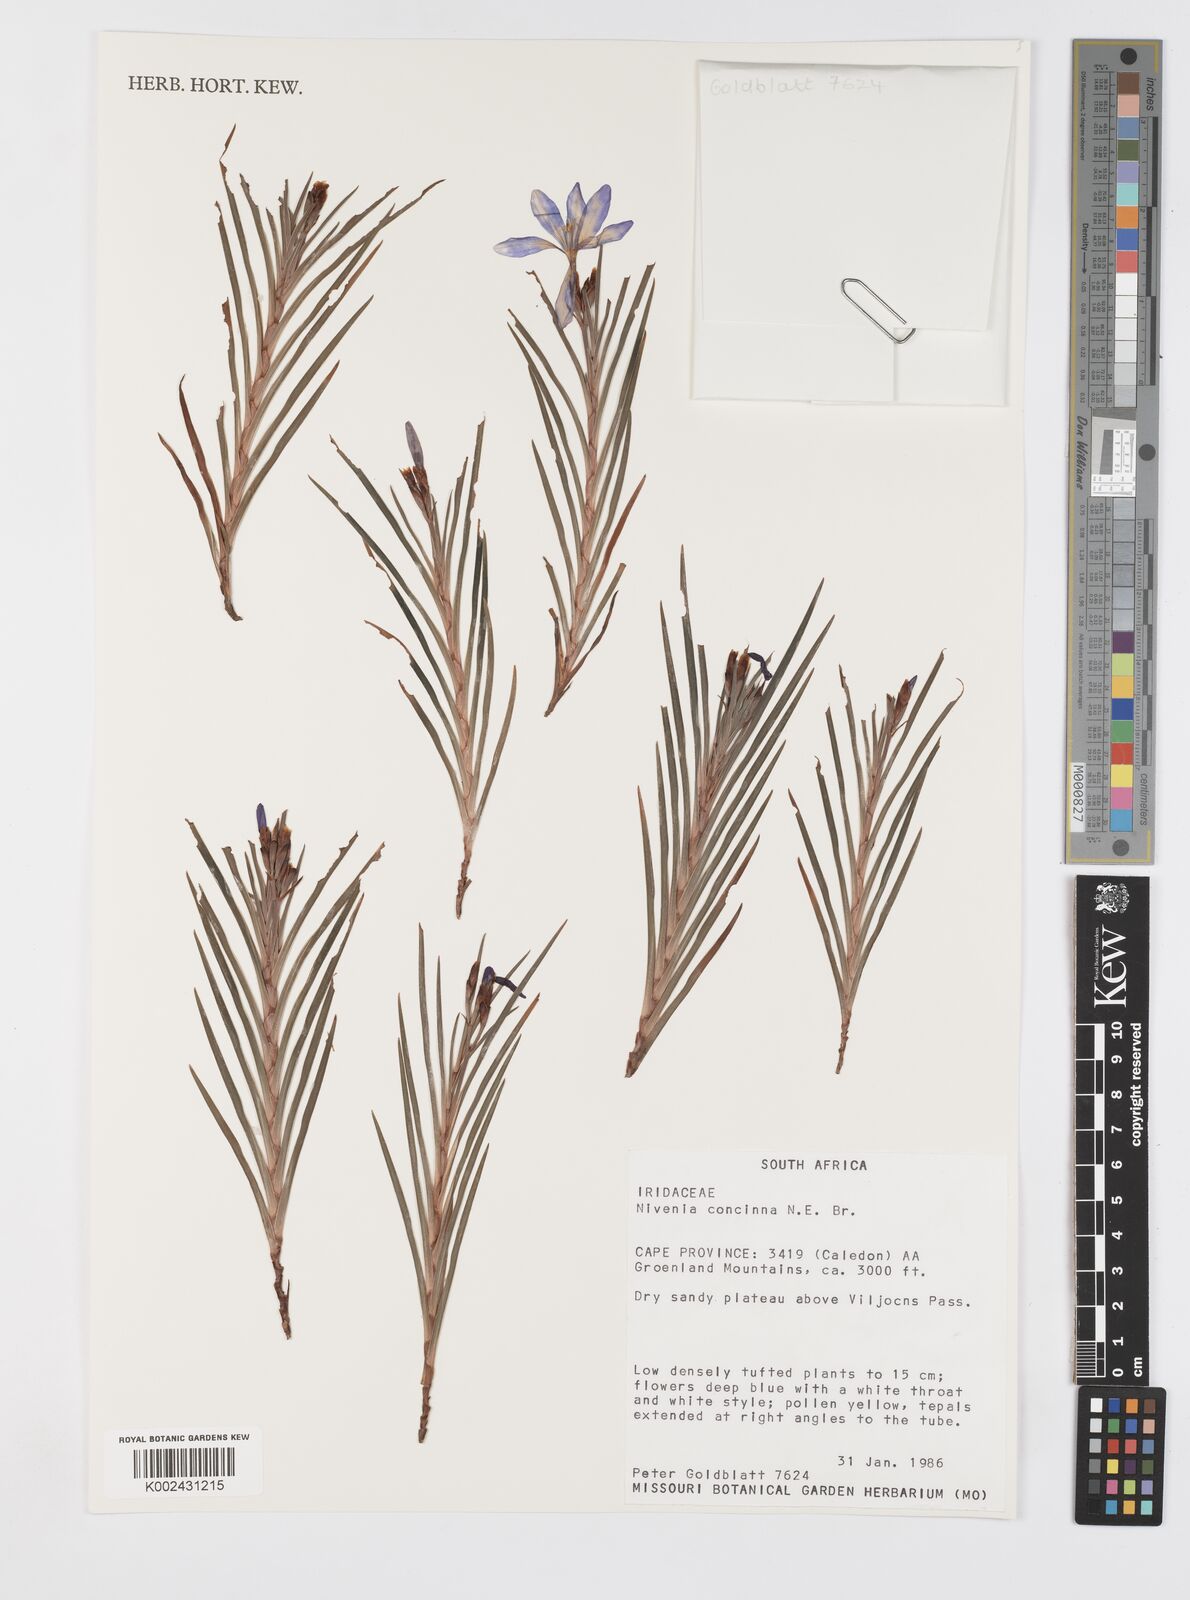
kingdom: Plantae
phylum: Tracheophyta
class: Liliopsida
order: Asparagales
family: Iridaceae
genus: Nivenia
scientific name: Nivenia levynsiae
